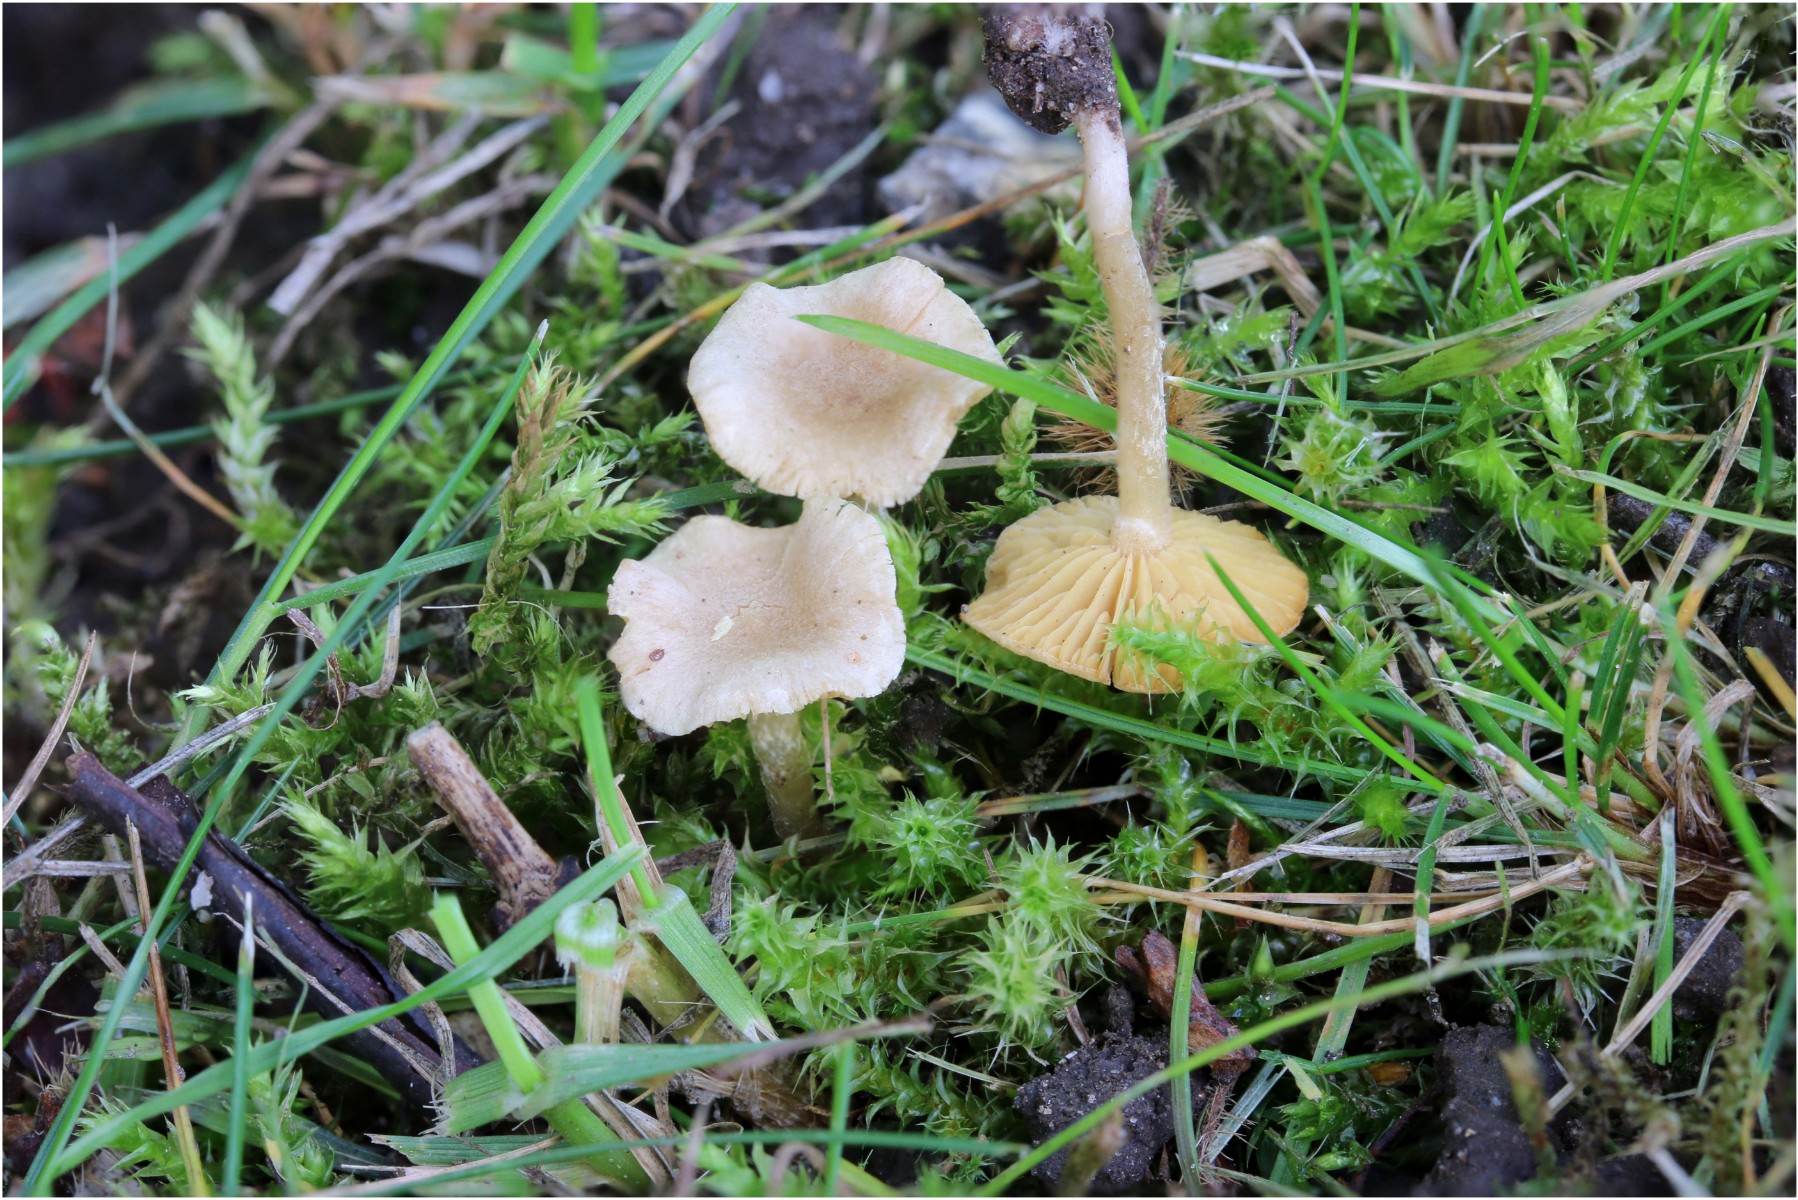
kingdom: Fungi
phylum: Basidiomycota
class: Agaricomycetes
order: Agaricales
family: Tubariaceae
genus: Tubaria
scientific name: Tubaria dispersa
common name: tjørne-fnughat
